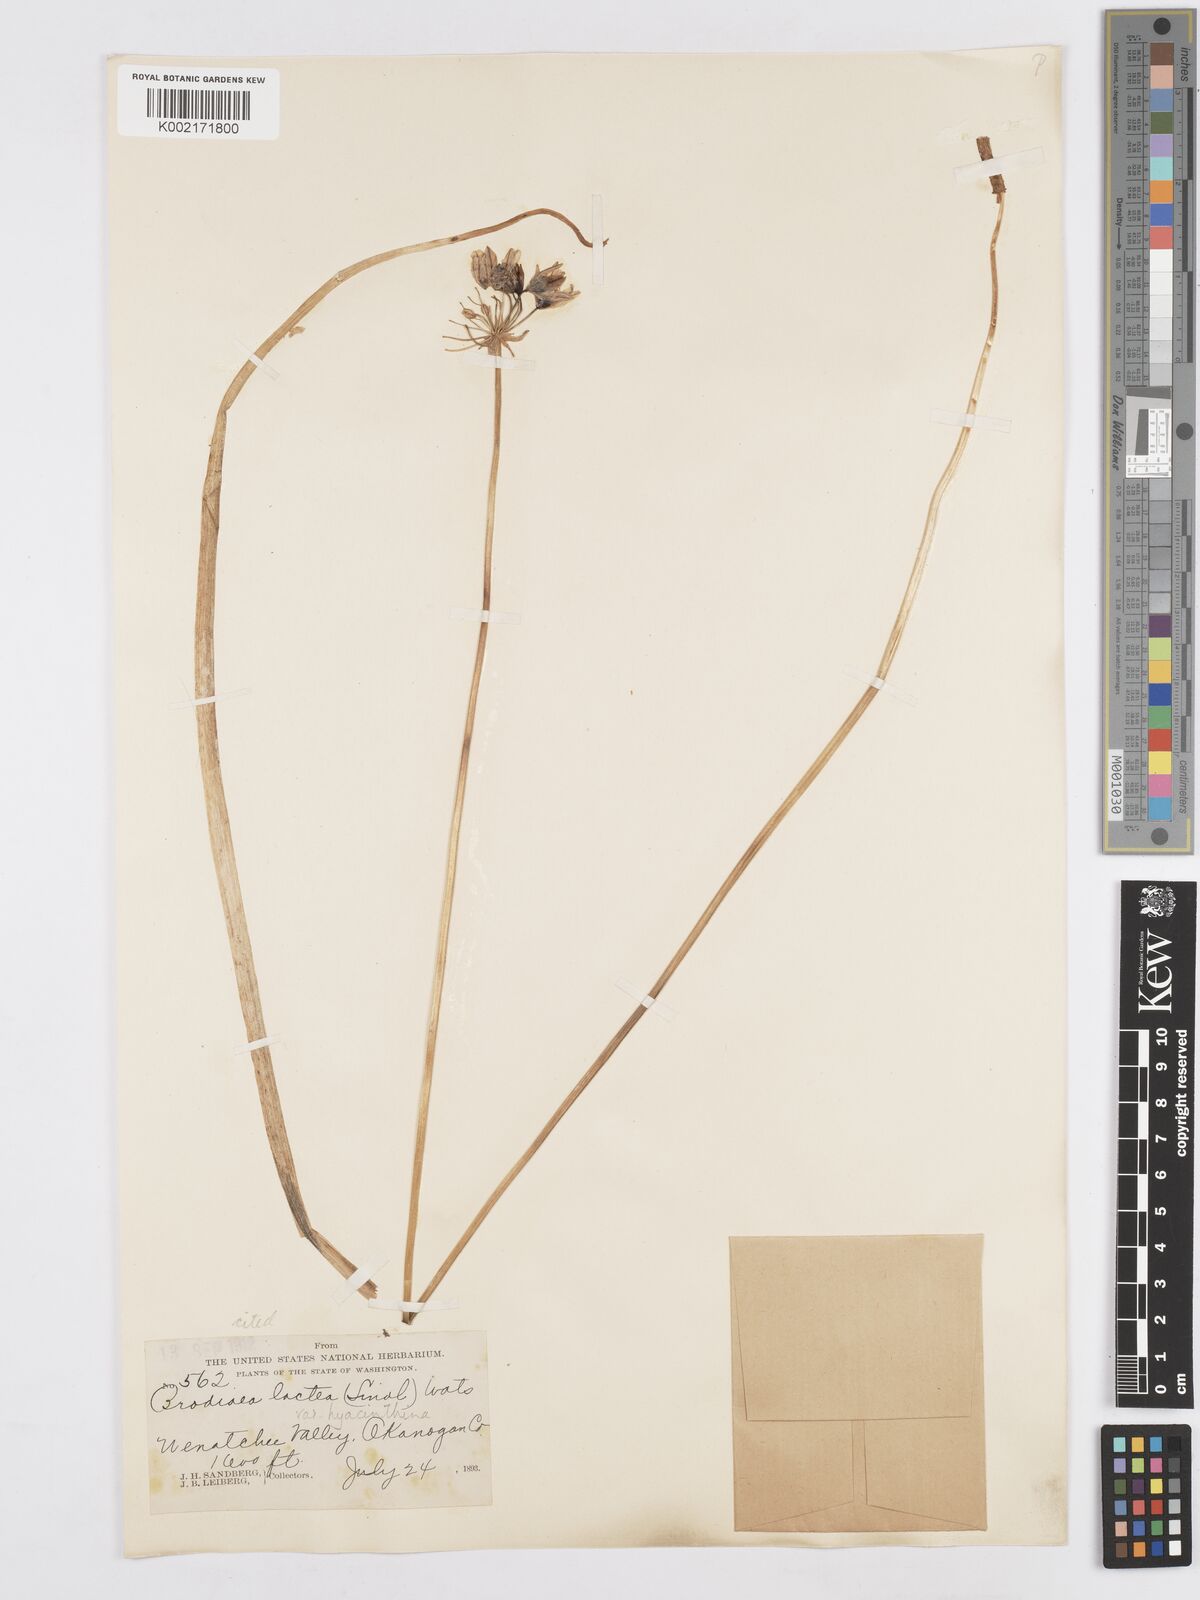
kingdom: Plantae
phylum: Tracheophyta
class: Liliopsida
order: Asparagales
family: Asparagaceae
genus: Triteleia
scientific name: Triteleia hyacinthina
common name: White brodiaea
